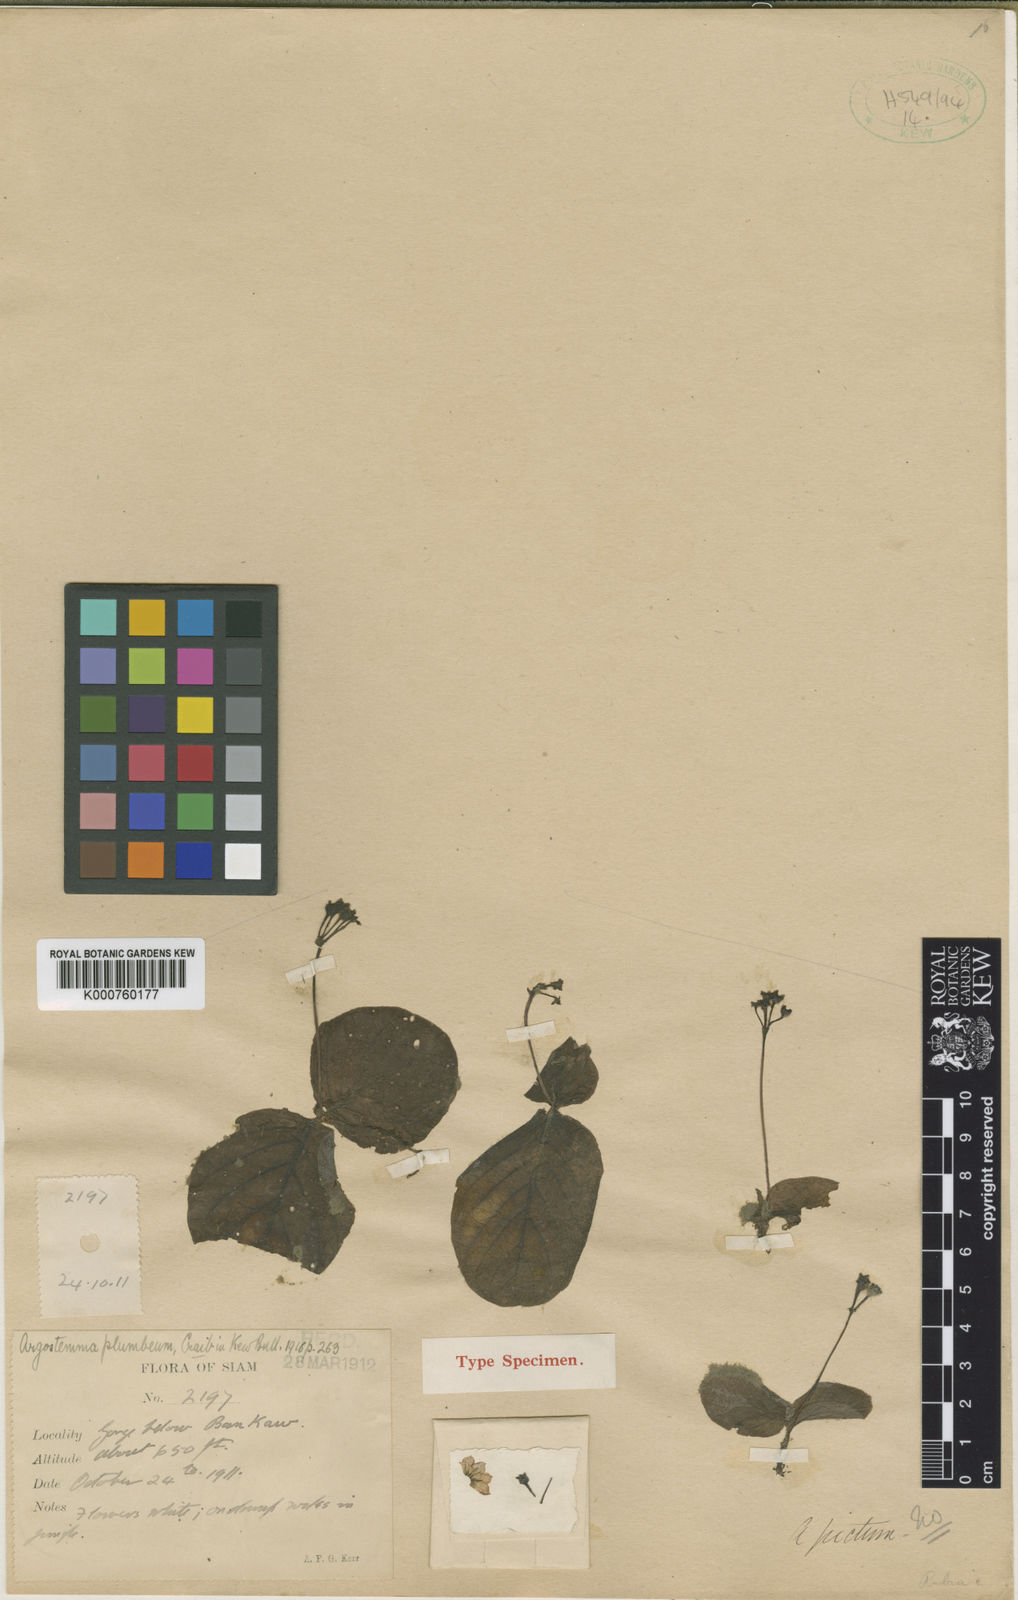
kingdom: Plantae
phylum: Tracheophyta
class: Magnoliopsida
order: Gentianales
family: Rubiaceae
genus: Argostemma
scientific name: Argostemma plumbeum
